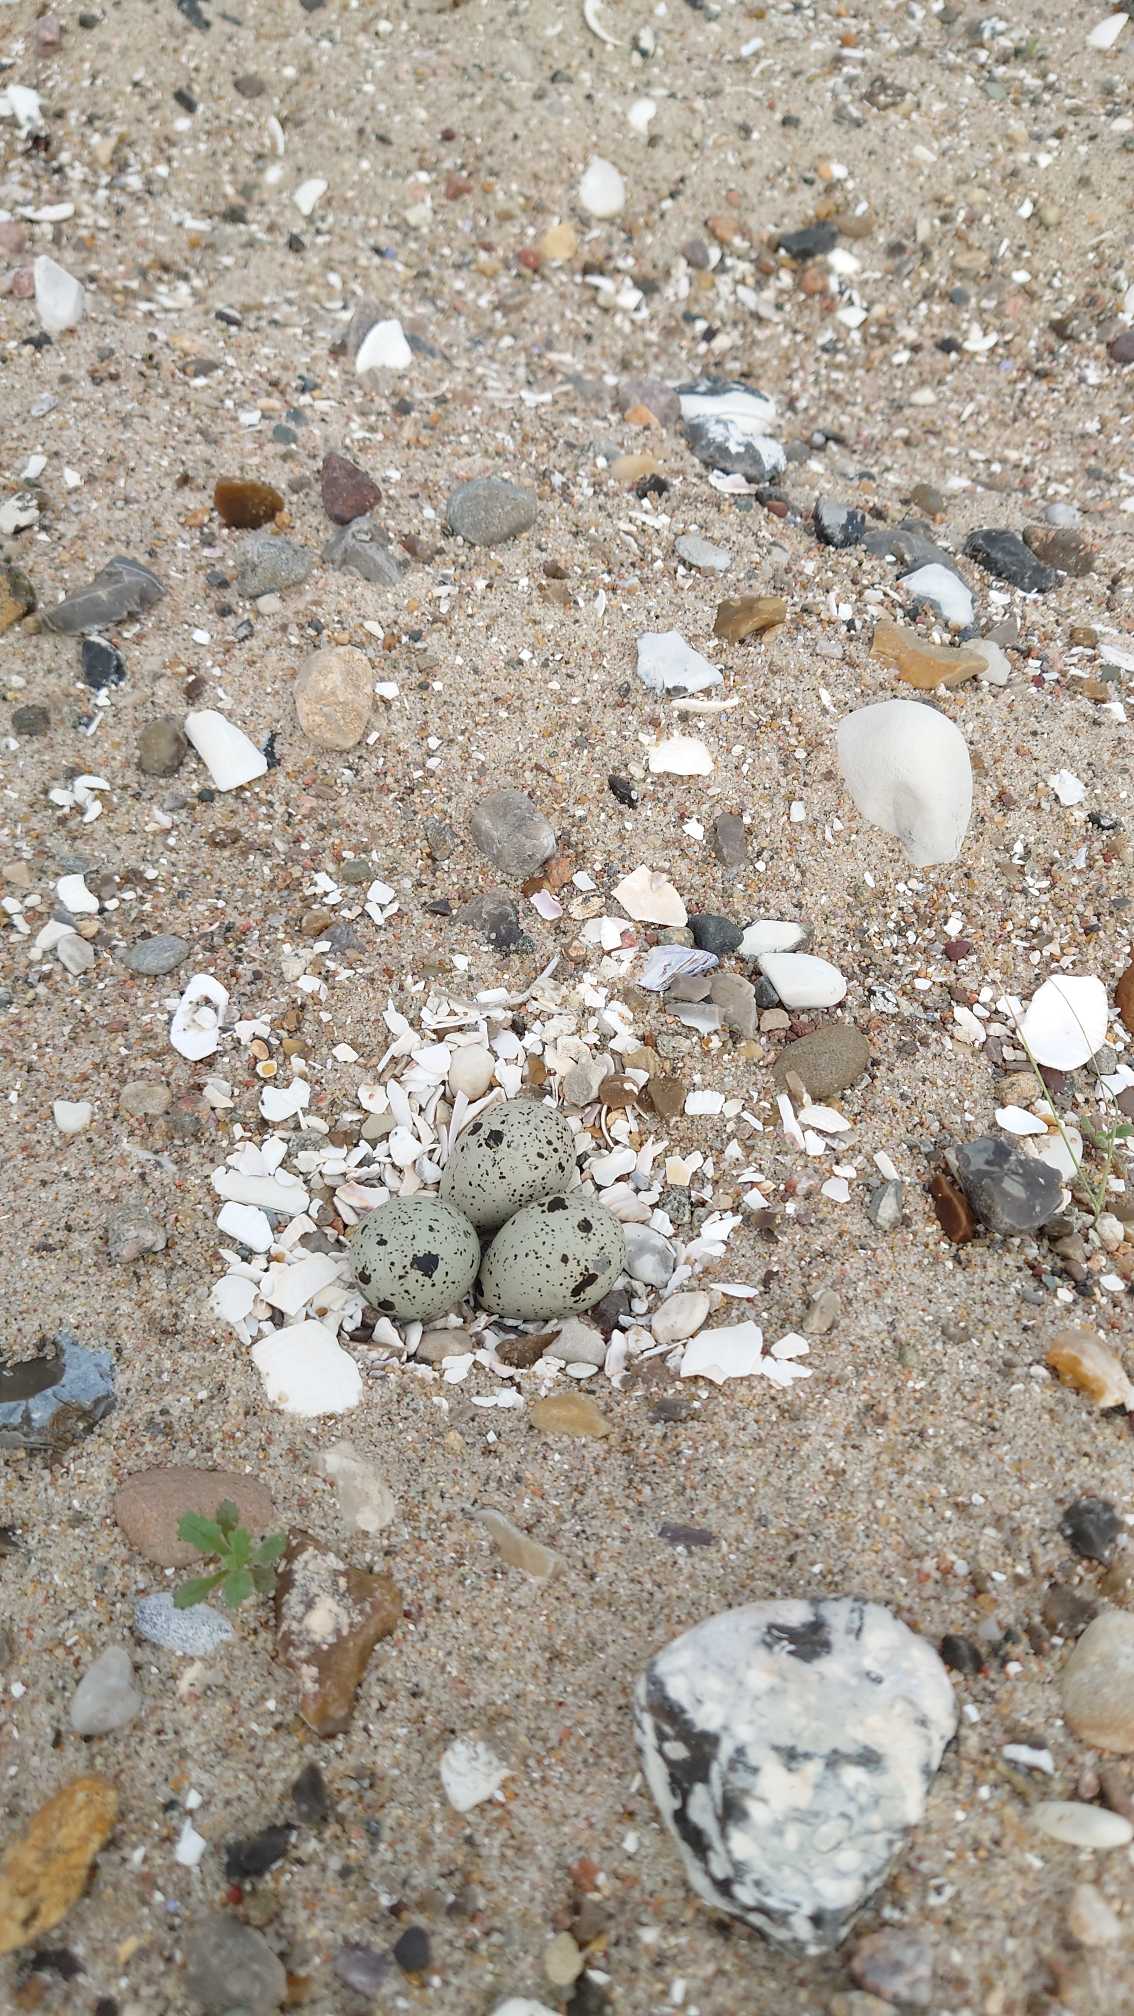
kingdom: Animalia
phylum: Chordata
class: Aves
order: Charadriiformes
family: Charadriidae
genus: Charadrius
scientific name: Charadrius hiaticula
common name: Stor præstekrave
